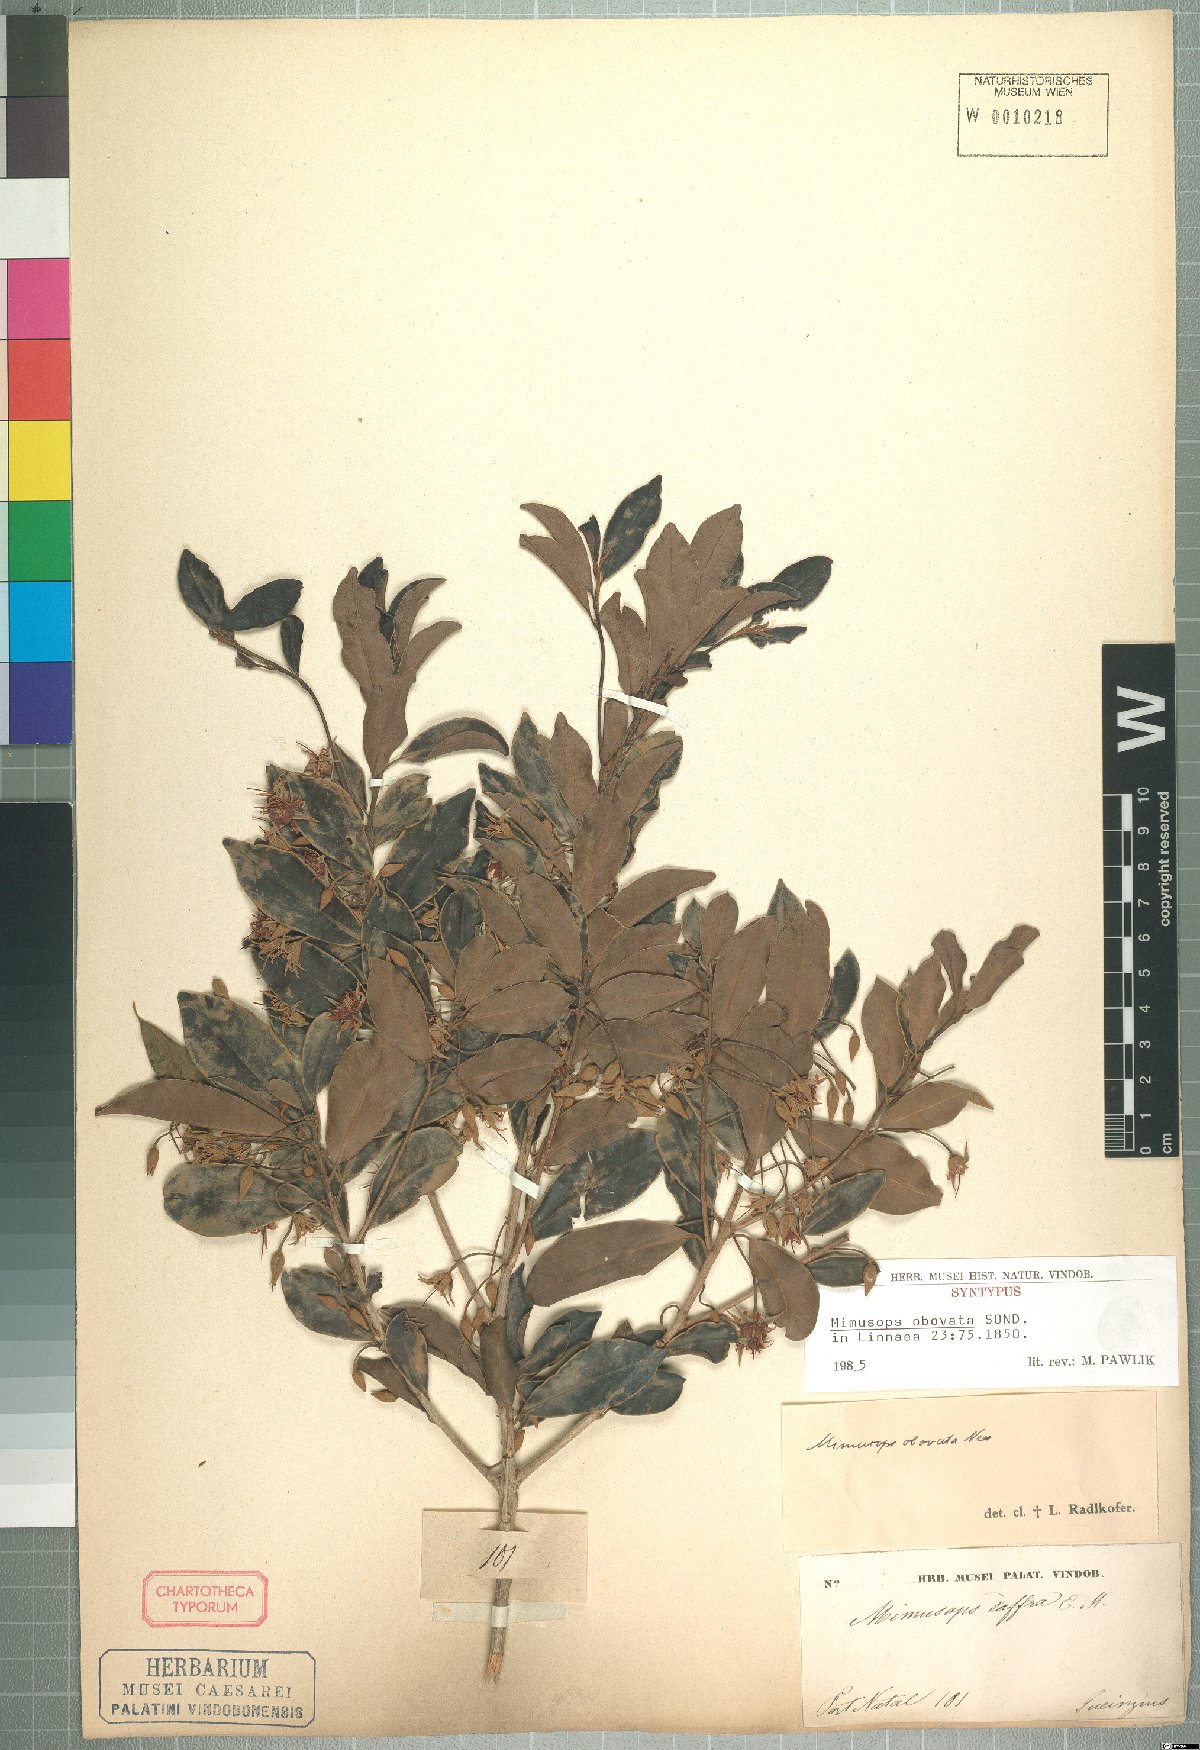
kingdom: Plantae
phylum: Tracheophyta
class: Magnoliopsida
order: Ericales
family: Sapotaceae
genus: Mimusops
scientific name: Mimusops obovata
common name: Red milkwood
